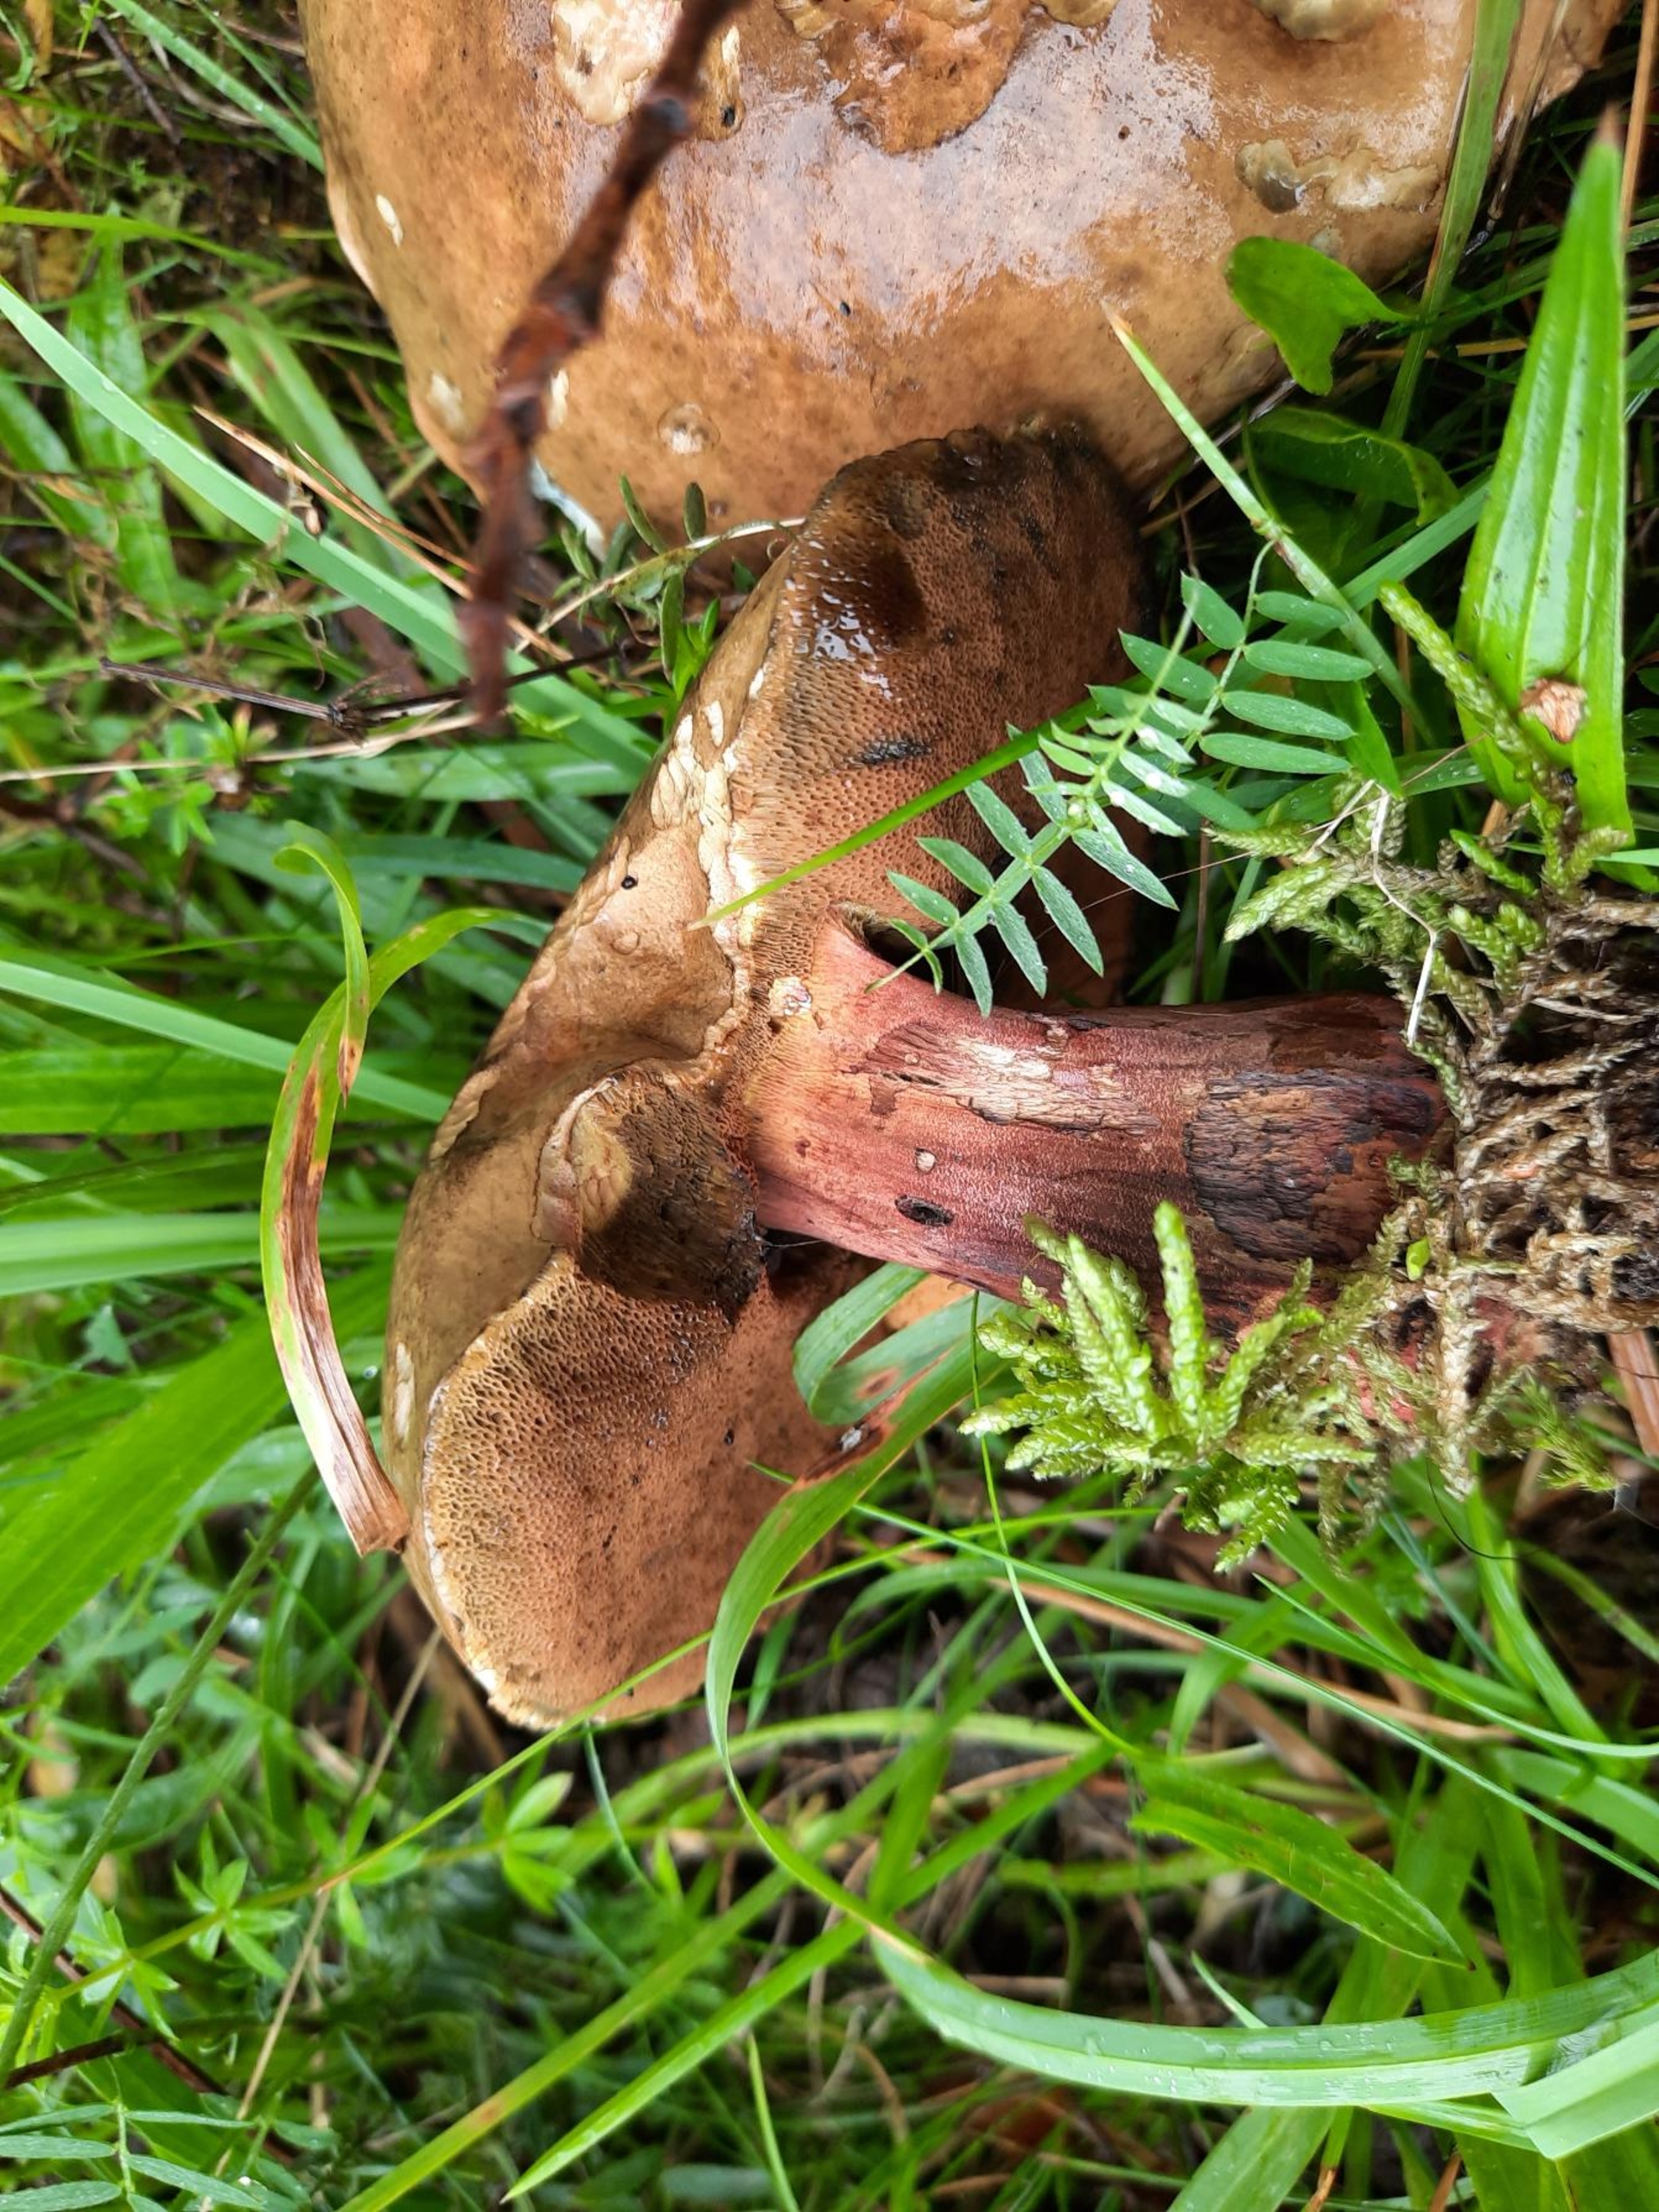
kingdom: Fungi
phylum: Basidiomycota
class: Agaricomycetes
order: Boletales
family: Boletaceae
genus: Neoboletus
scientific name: Neoboletus
